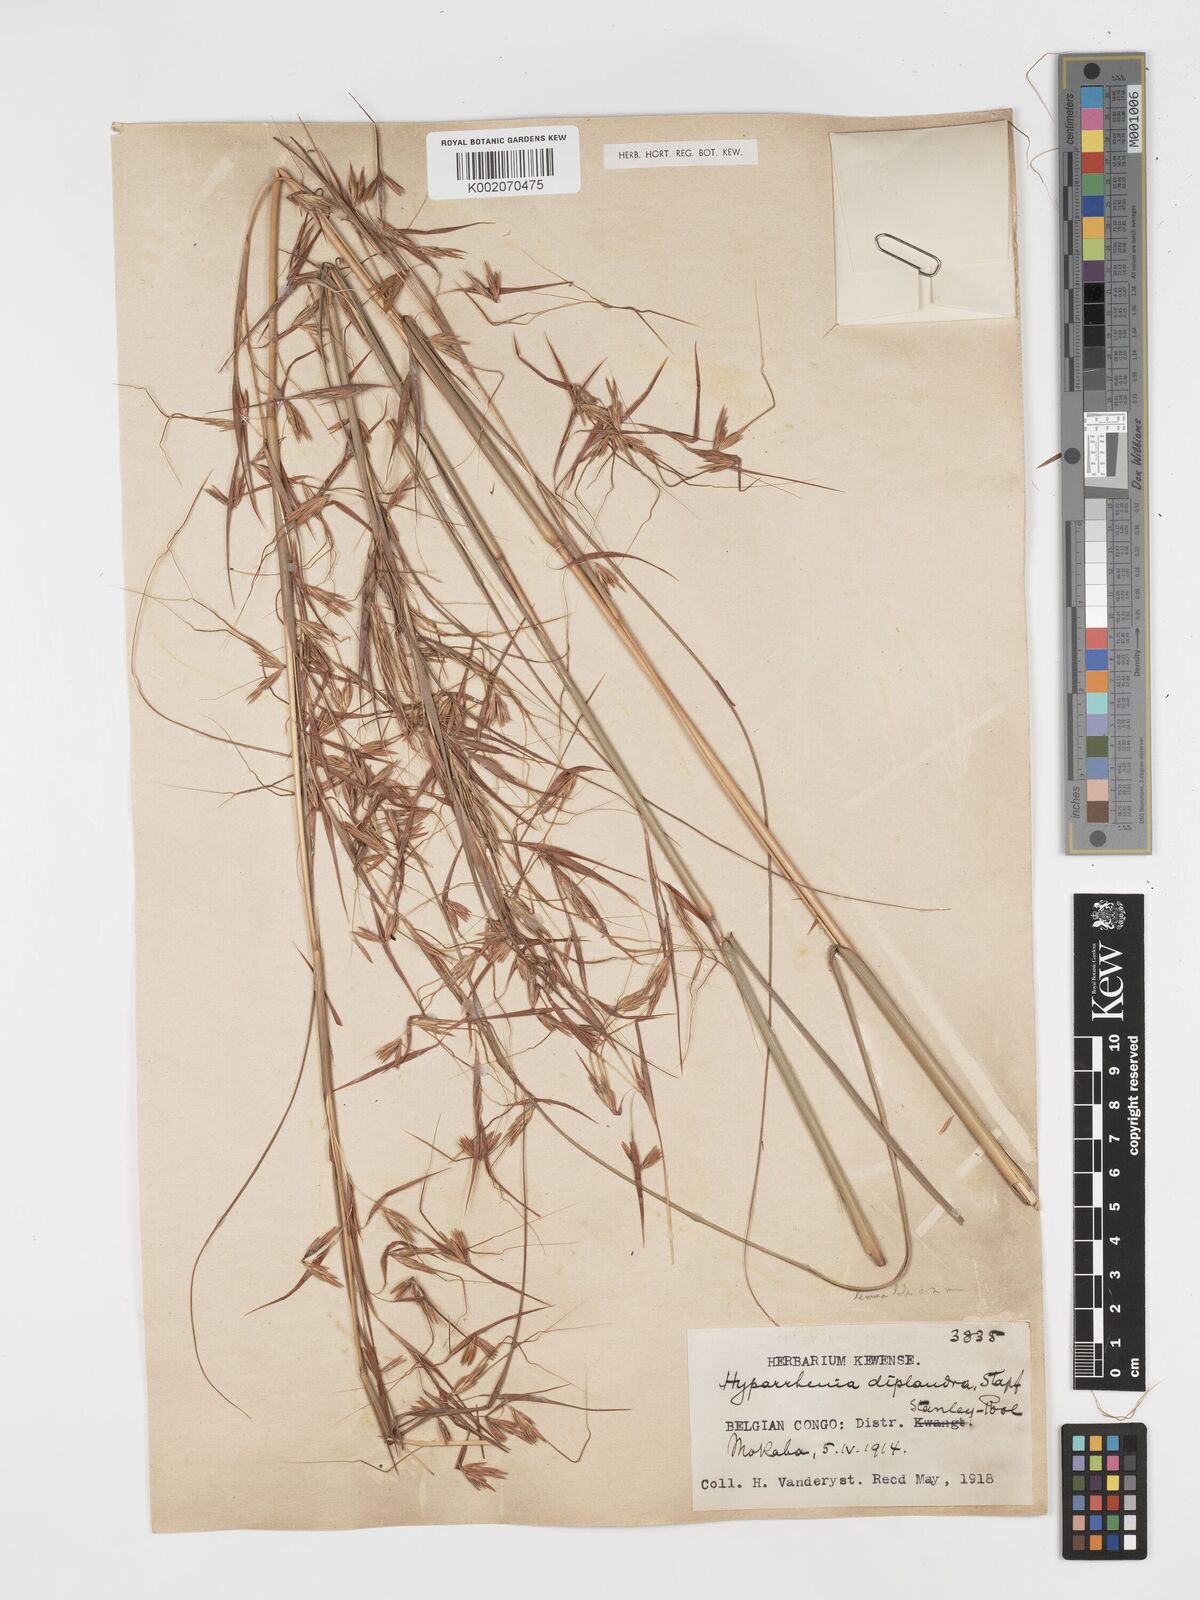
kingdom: Plantae
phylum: Tracheophyta
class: Liliopsida
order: Poales
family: Poaceae
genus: Hyparrhenia
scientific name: Hyparrhenia diplandra
